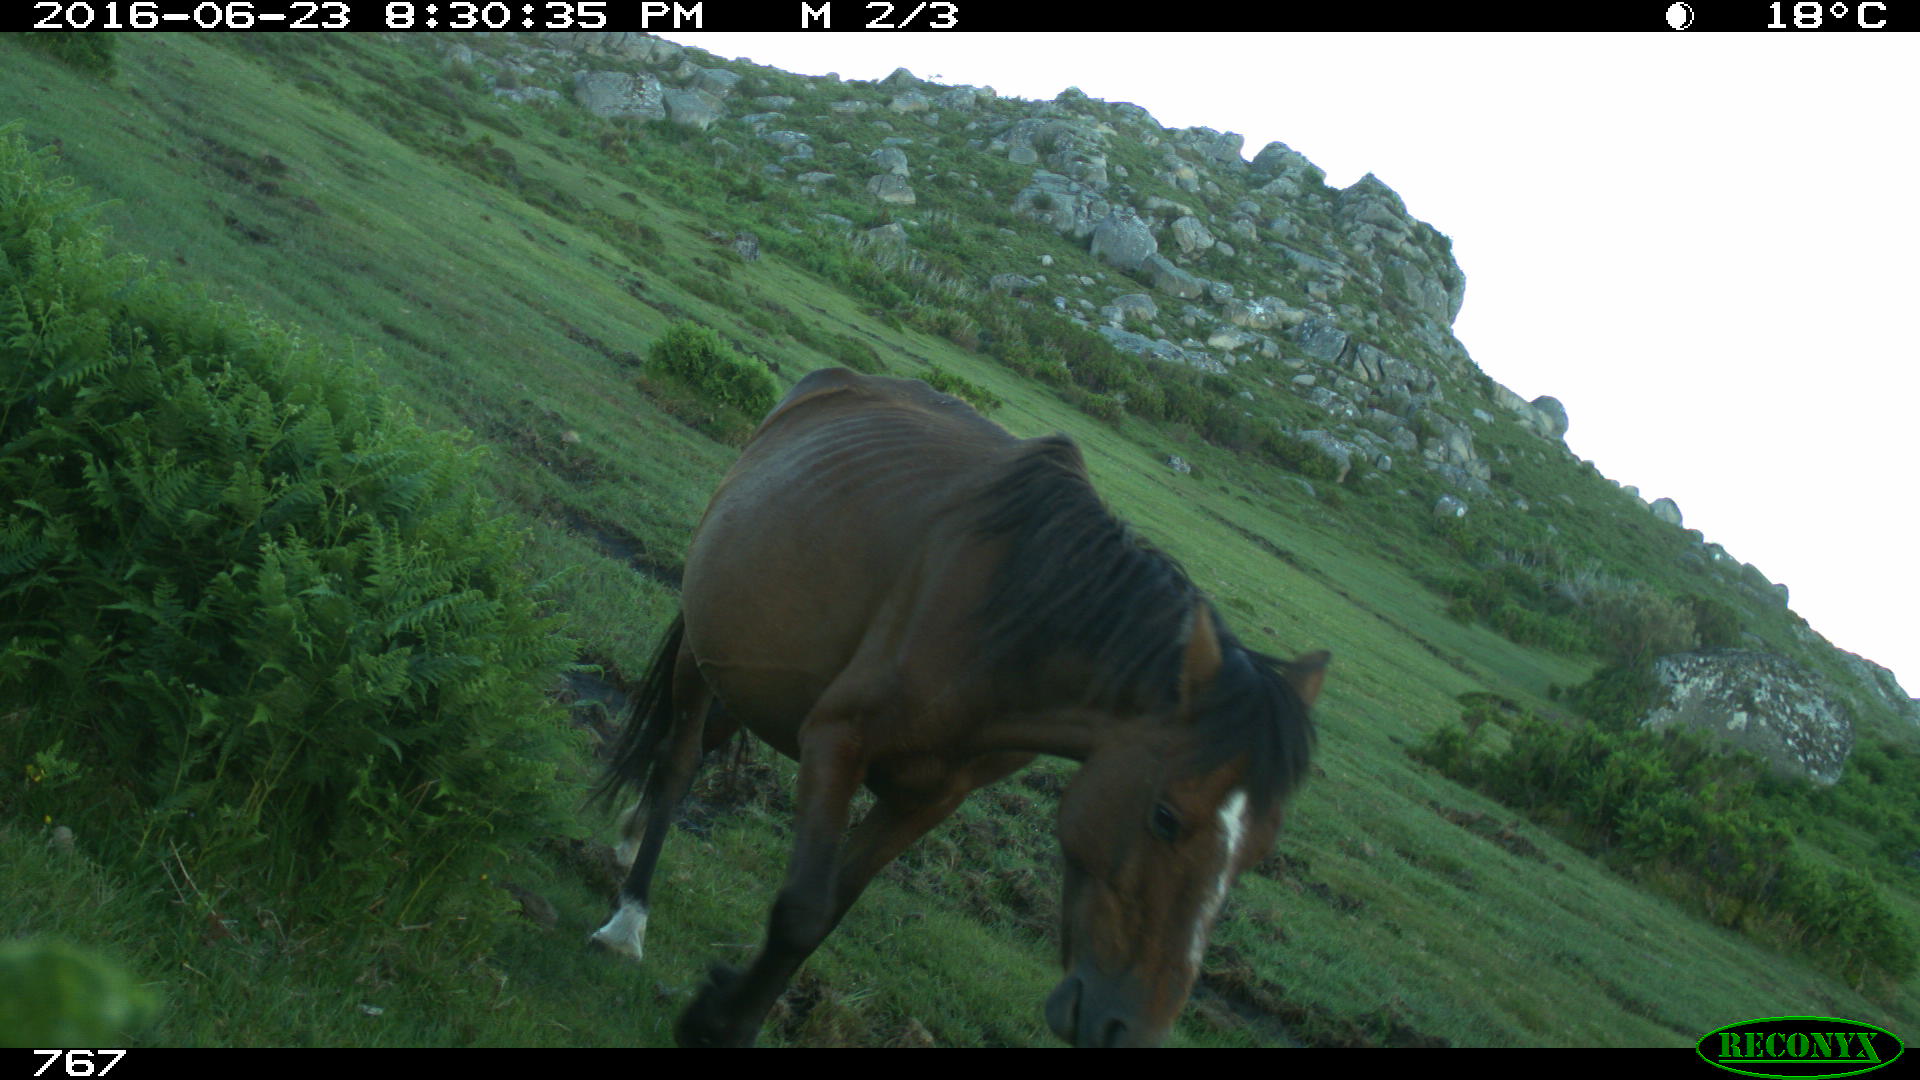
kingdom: Animalia
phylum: Chordata
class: Mammalia
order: Perissodactyla
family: Equidae
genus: Equus
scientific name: Equus caballus
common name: Horse
